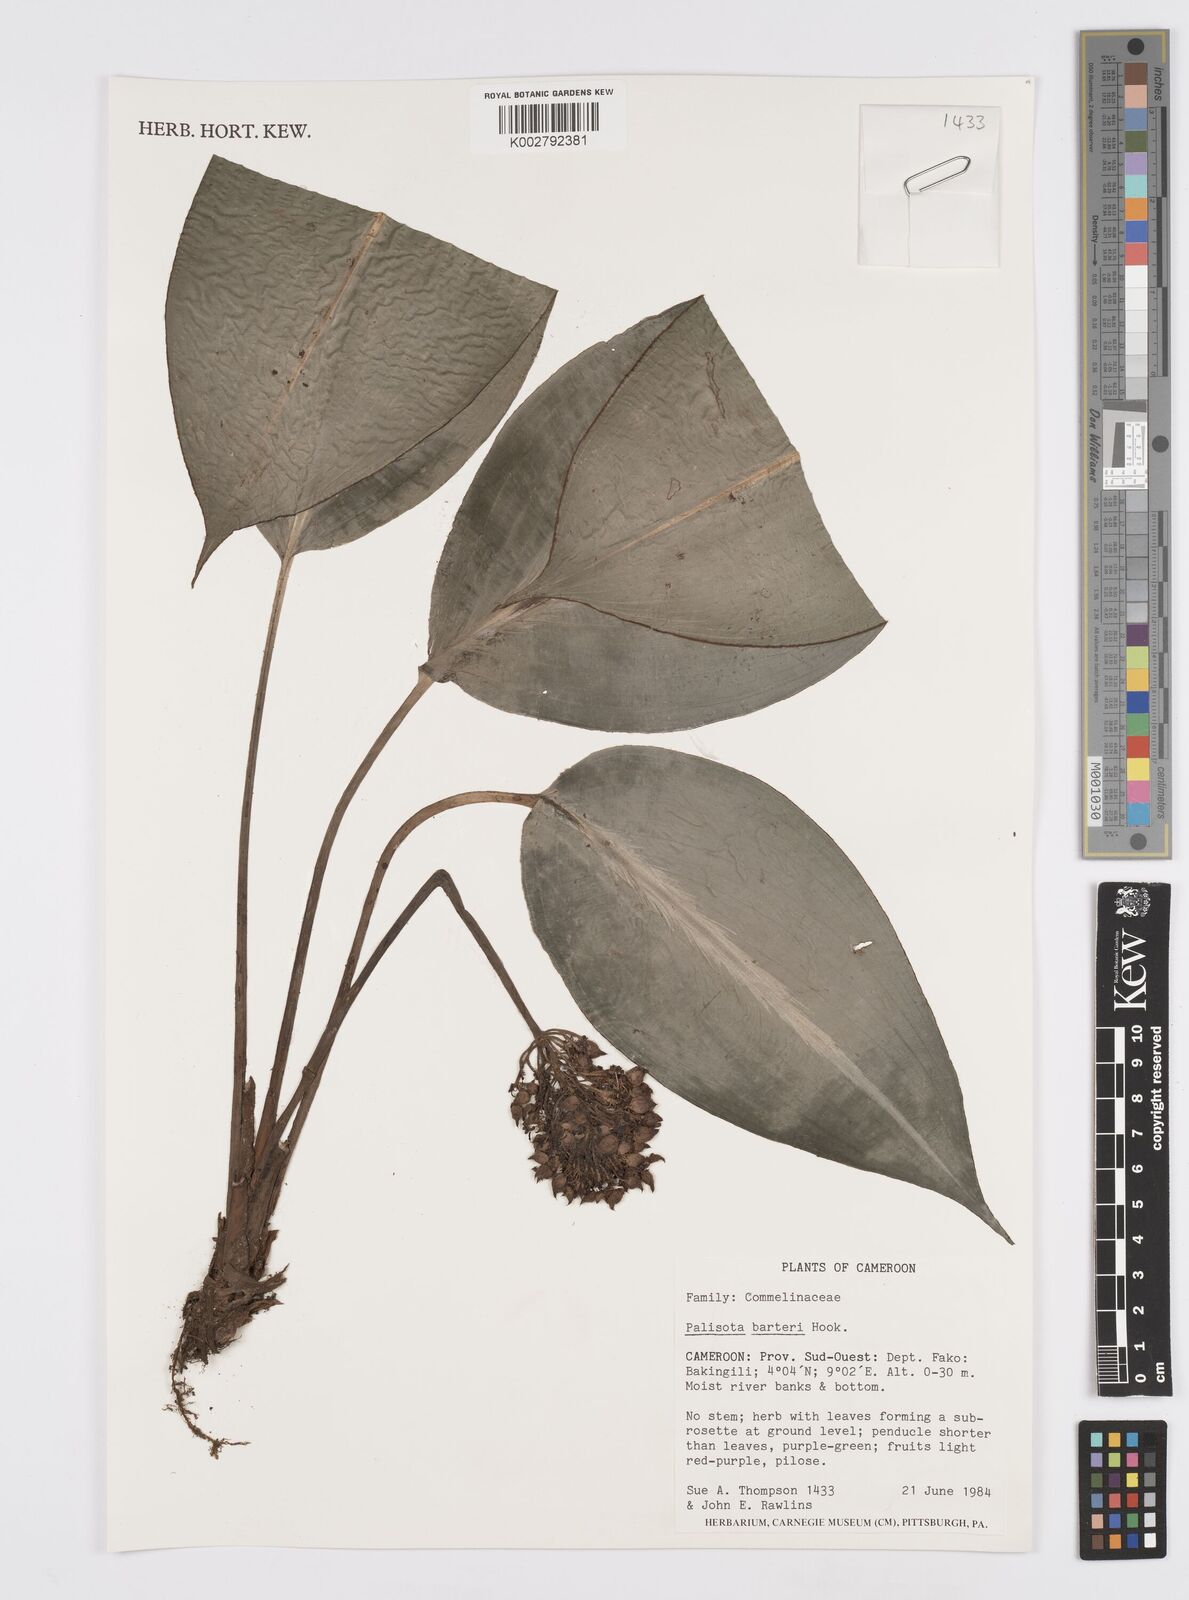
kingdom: Plantae
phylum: Tracheophyta
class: Liliopsida
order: Commelinales
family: Commelinaceae
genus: Palisota
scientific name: Palisota barteri
